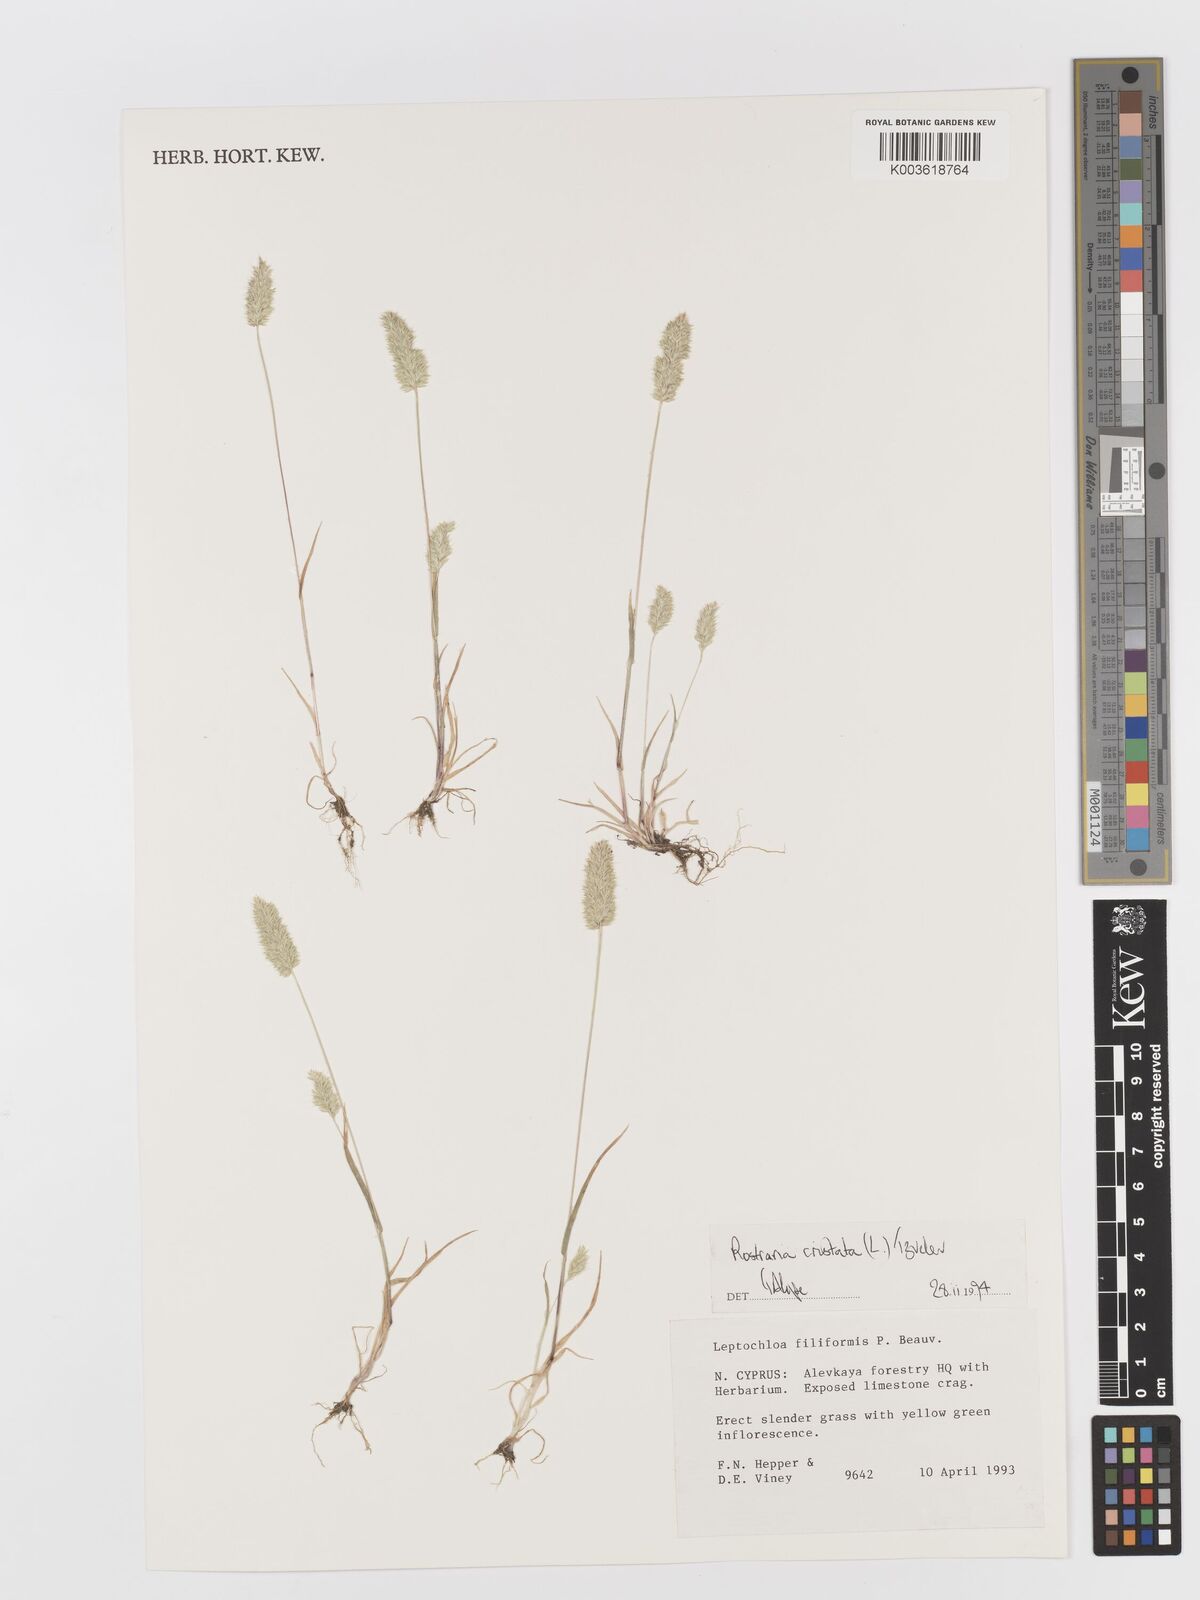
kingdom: Plantae
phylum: Tracheophyta
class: Liliopsida
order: Poales
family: Poaceae
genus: Rostraria
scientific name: Rostraria cristata
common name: Mediterranean hair-grass
